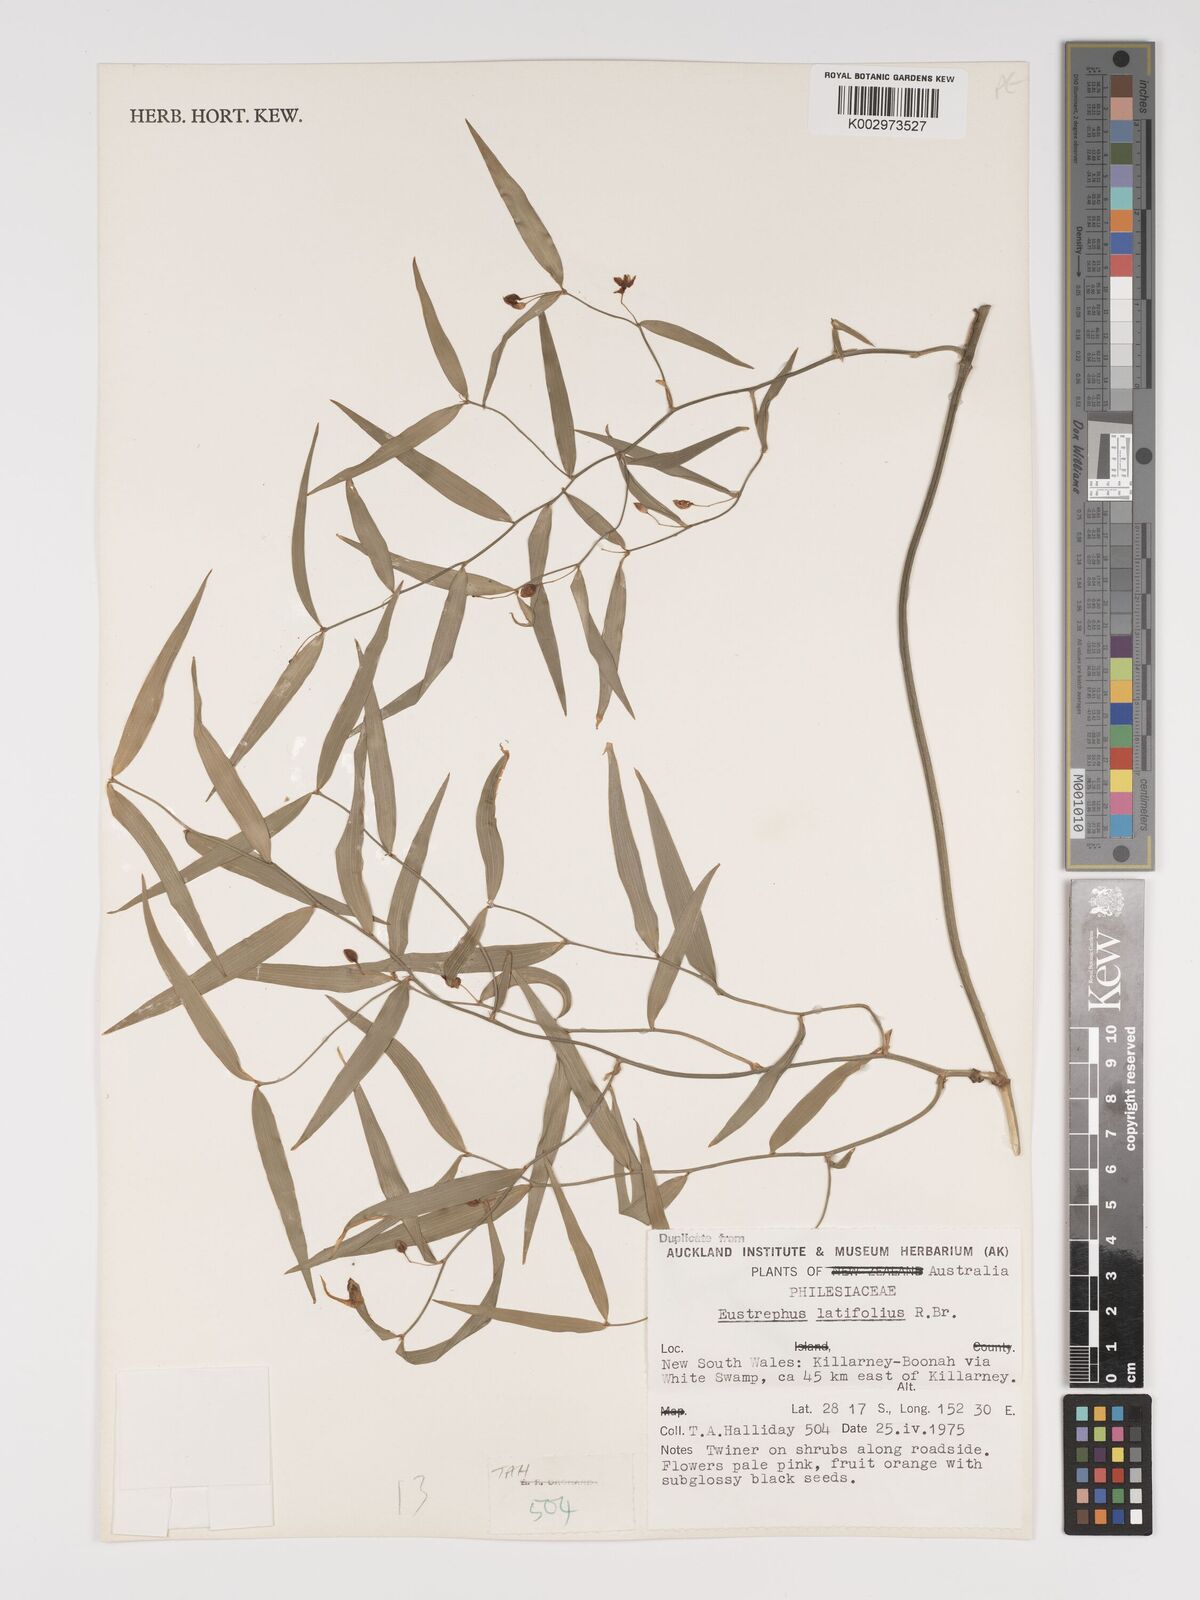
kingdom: Plantae
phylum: Tracheophyta
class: Liliopsida
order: Asparagales
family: Asparagaceae
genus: Eustrephus
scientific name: Eustrephus latifolius
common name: Orangevine
